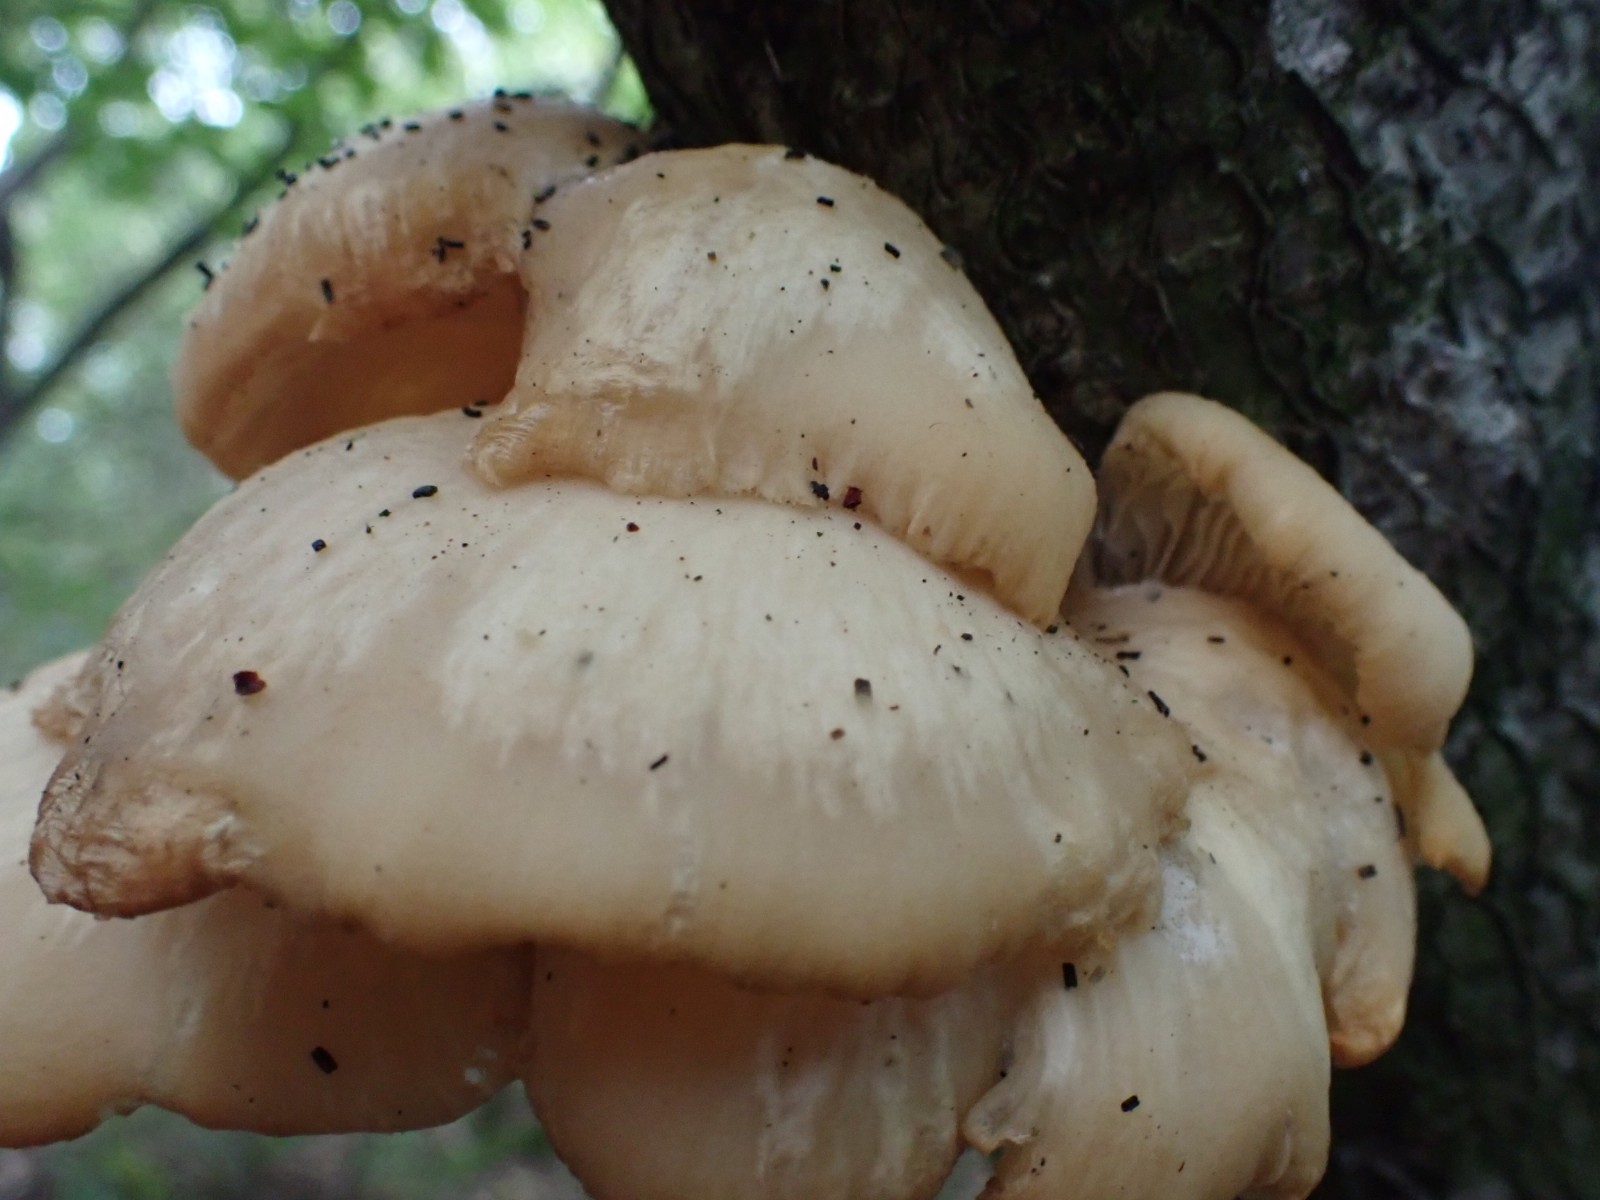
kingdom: Fungi
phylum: Basidiomycota
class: Agaricomycetes
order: Agaricales
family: Pleurotaceae
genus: Pleurotus
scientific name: Pleurotus pulmonarius
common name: sommer-østershat
